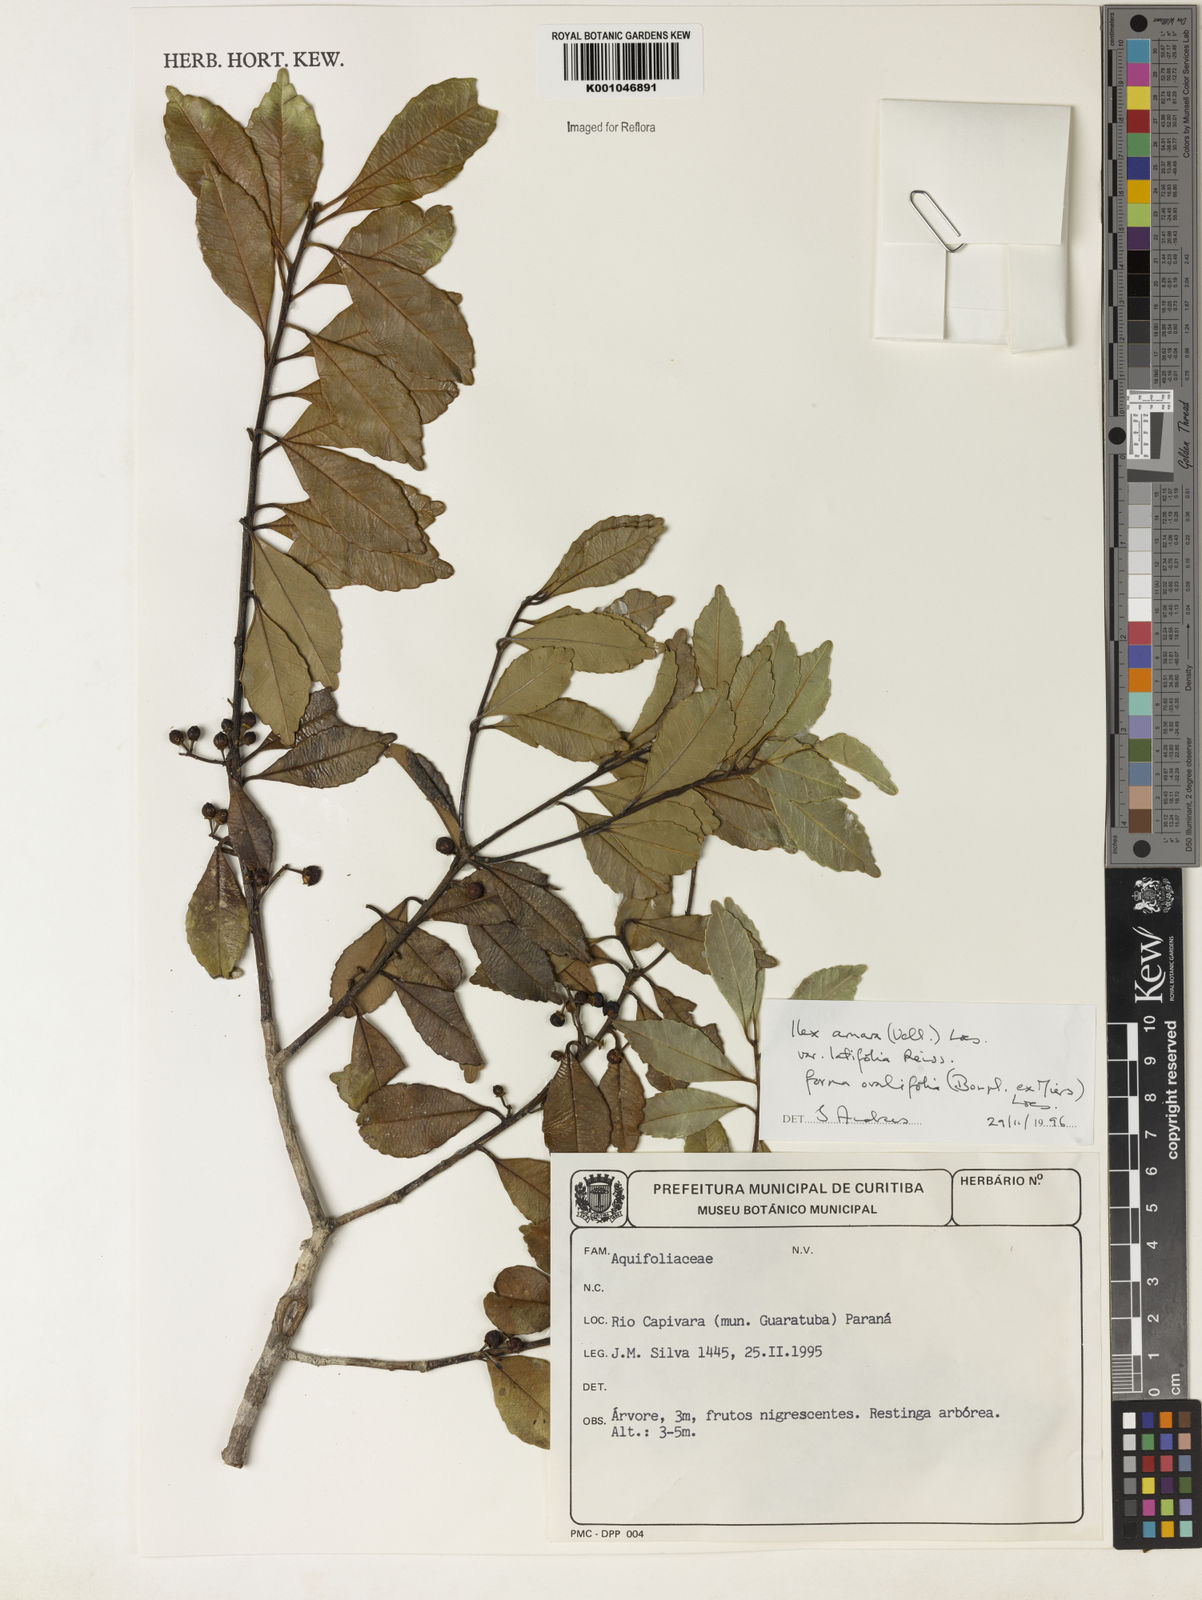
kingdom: Plantae
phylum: Tracheophyta
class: Magnoliopsida
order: Aquifoliales
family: Aquifoliaceae
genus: Ilex
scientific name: Ilex
